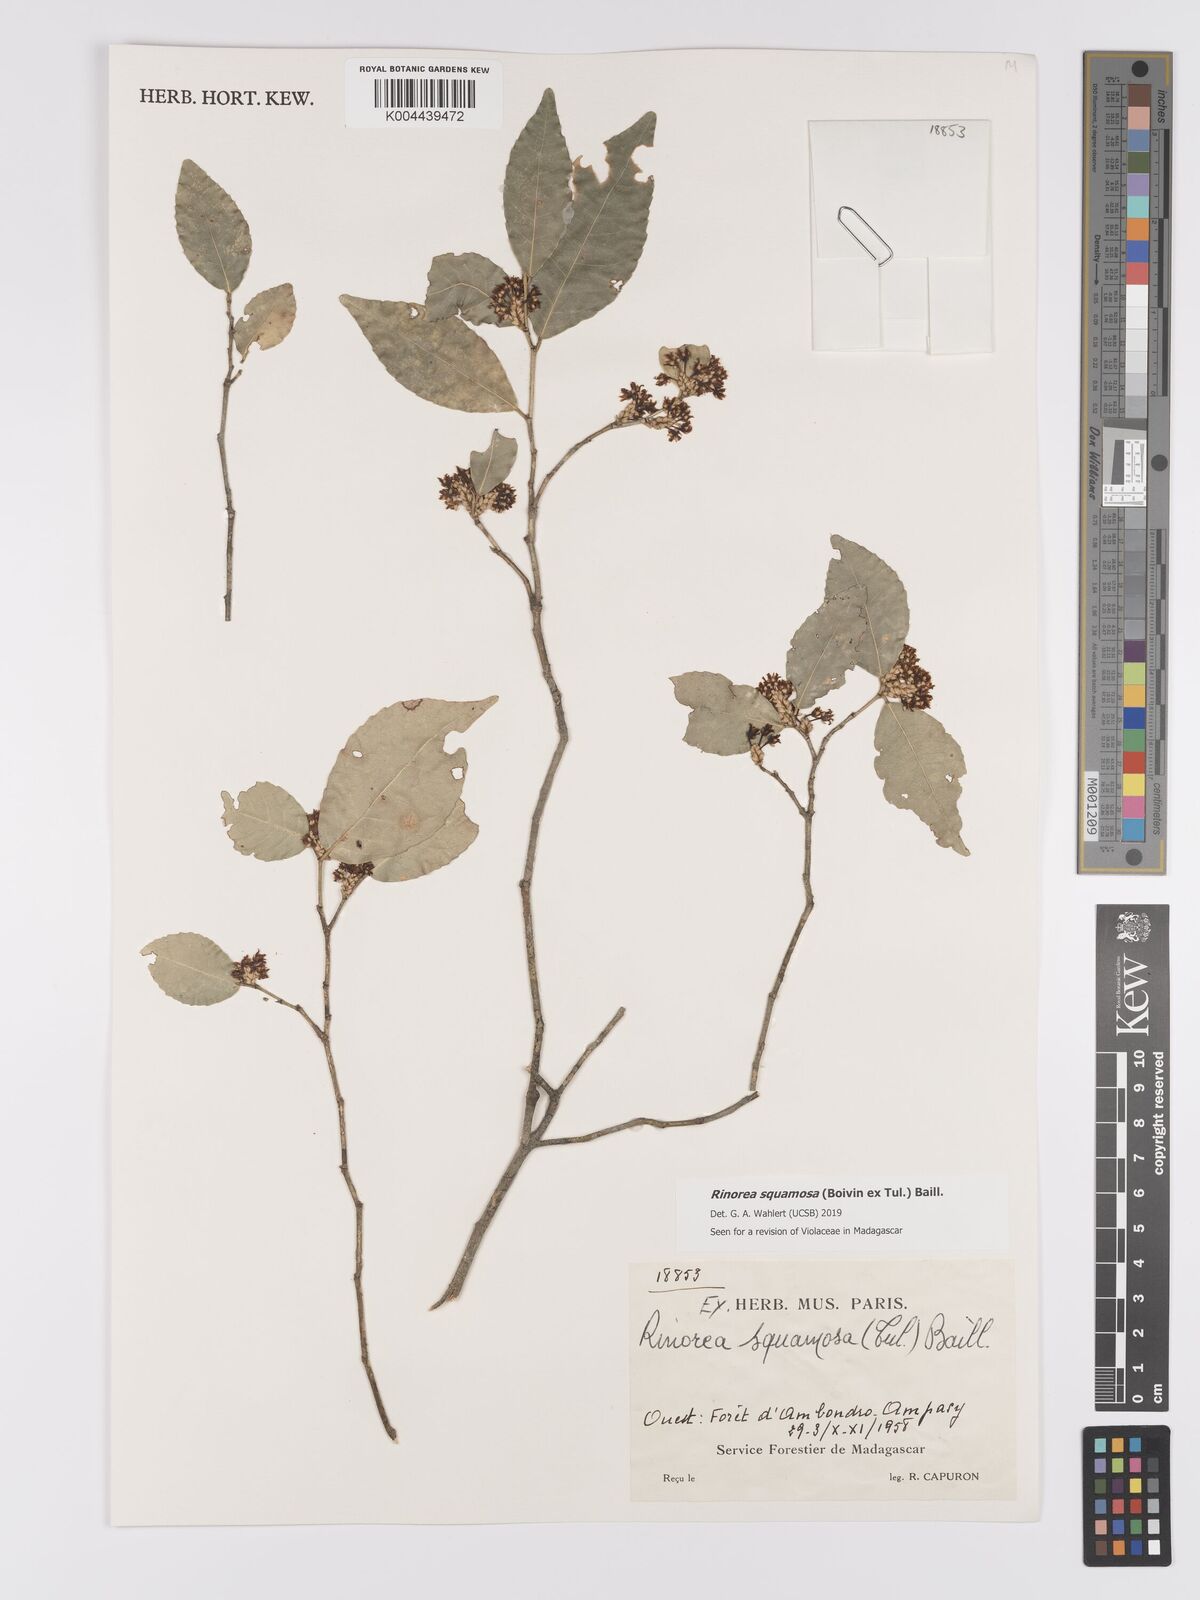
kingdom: Plantae
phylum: Tracheophyta
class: Magnoliopsida
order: Malpighiales
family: Violaceae
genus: Rinorea
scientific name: Rinorea squamosa
